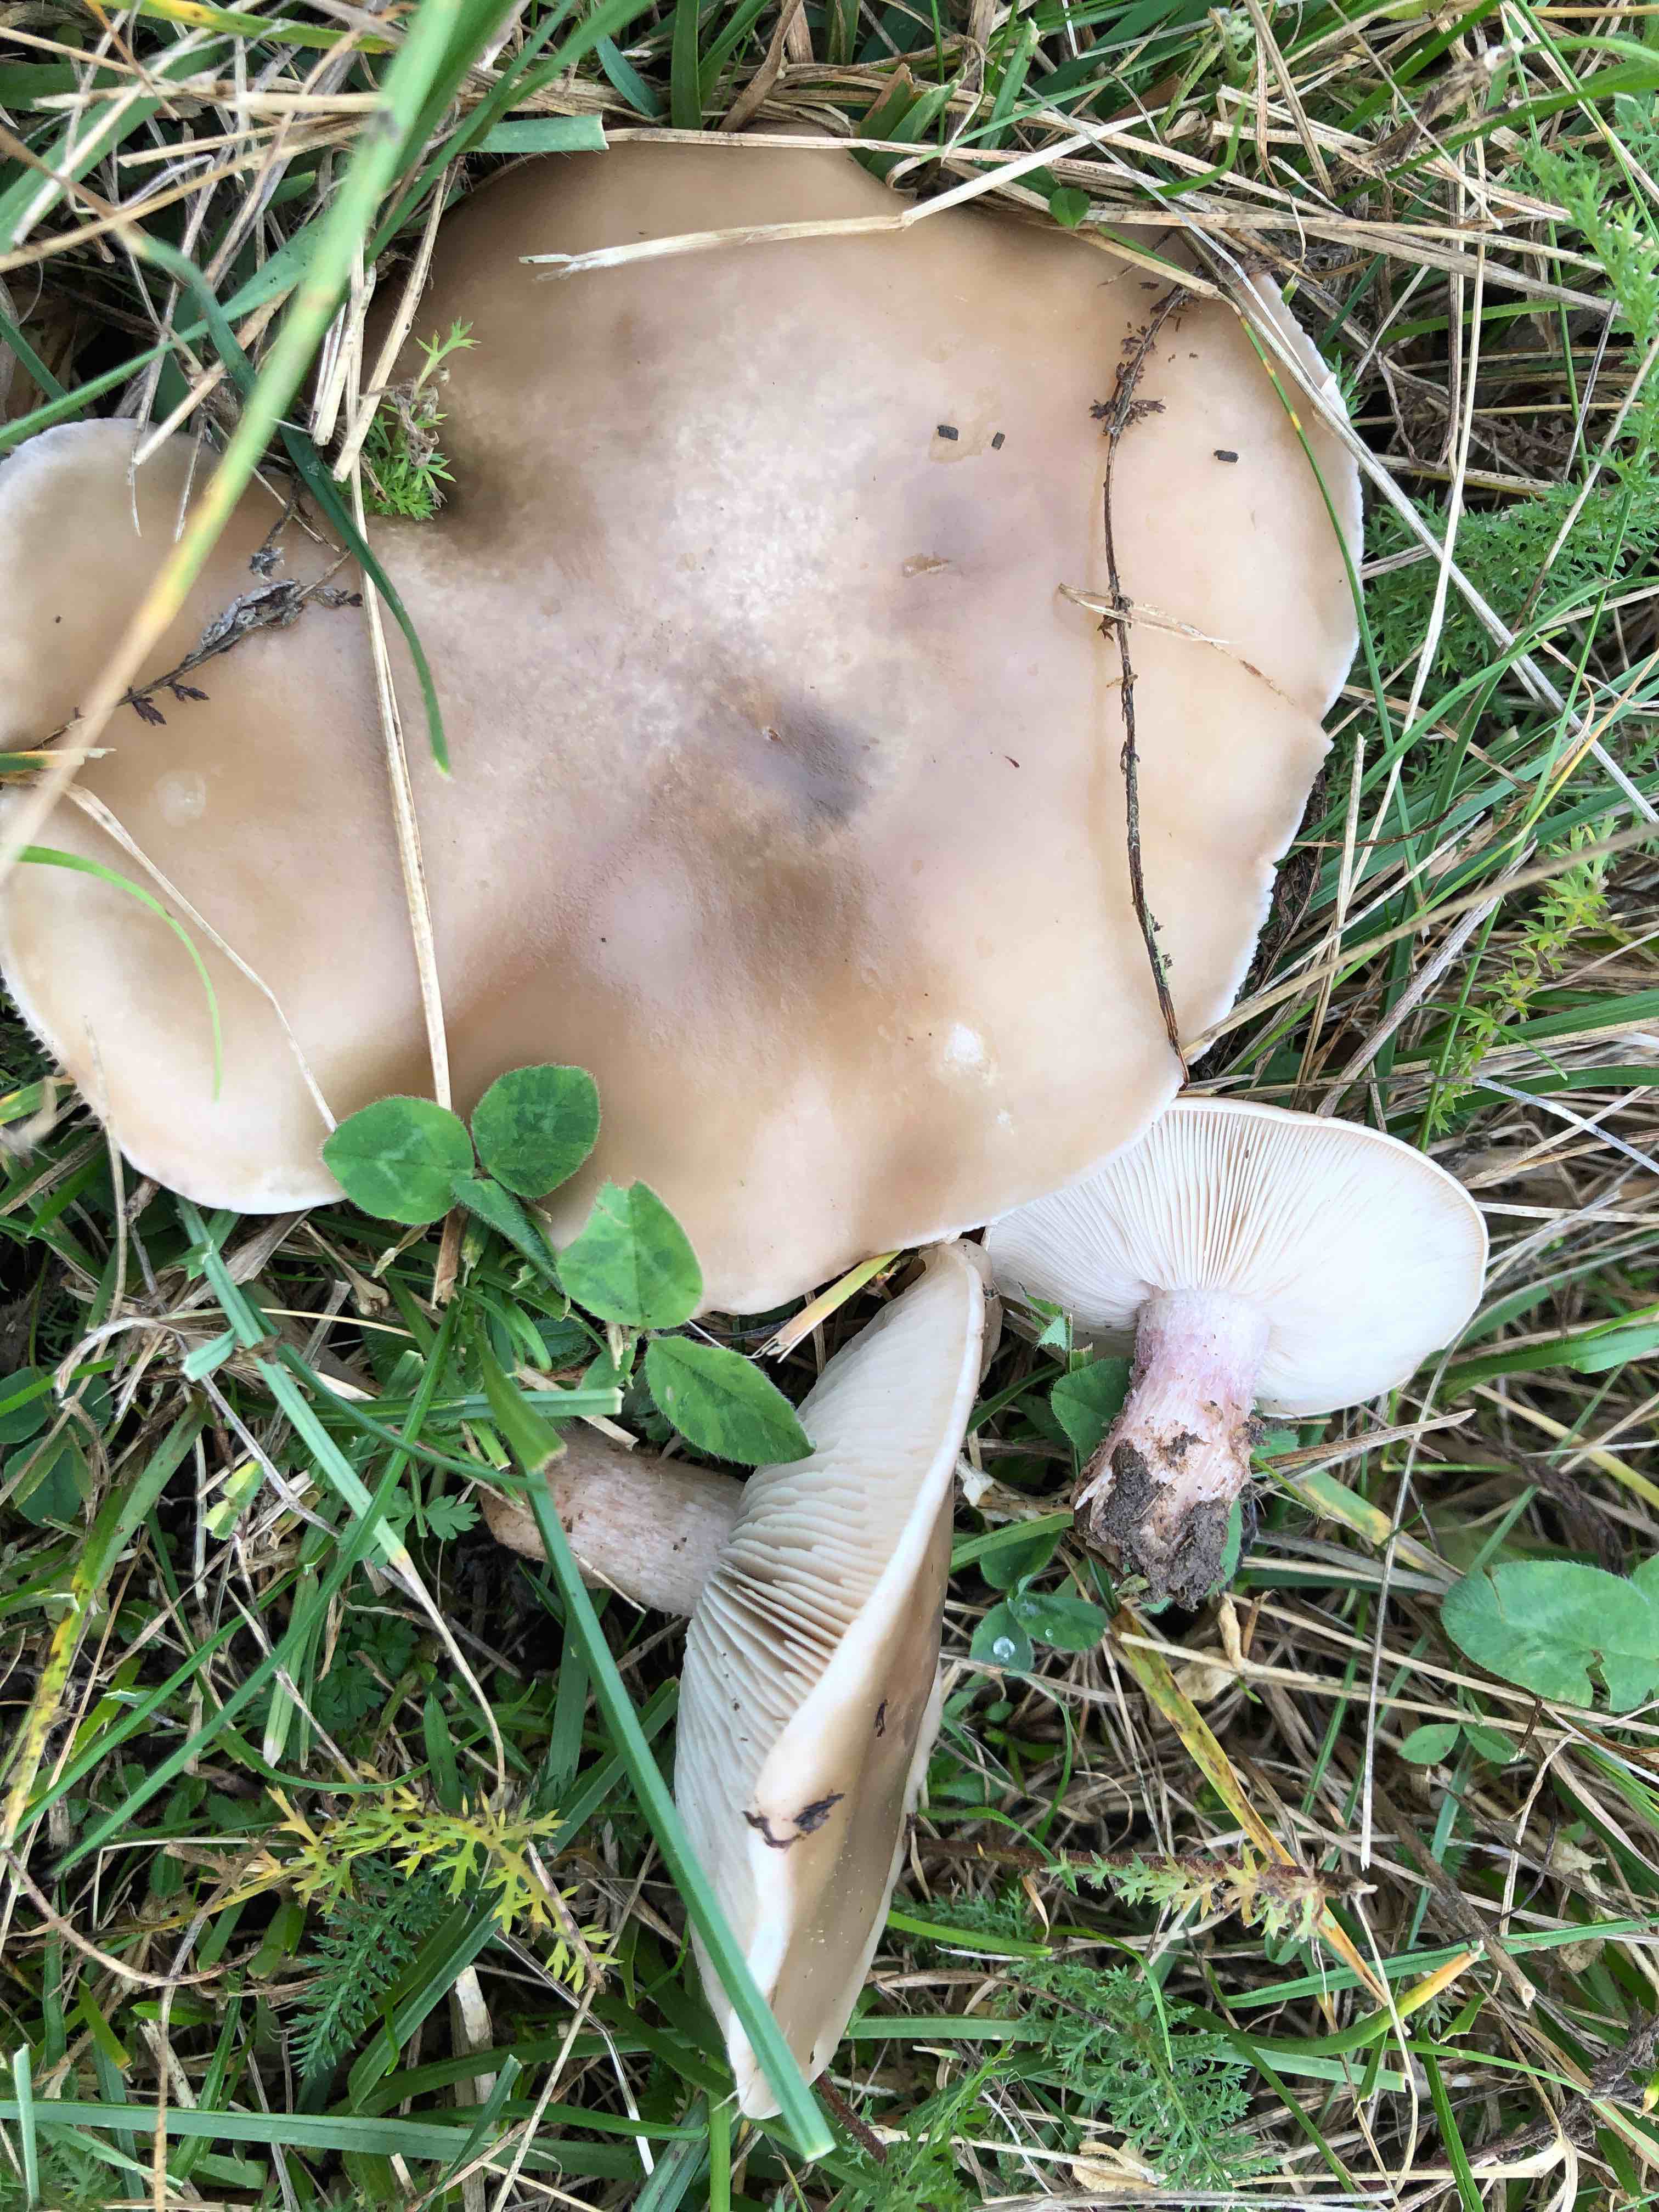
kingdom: Fungi
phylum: Basidiomycota
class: Agaricomycetes
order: Agaricales
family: Tricholomataceae
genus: Lepista
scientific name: Lepista personata
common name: bleg hekseringshat
